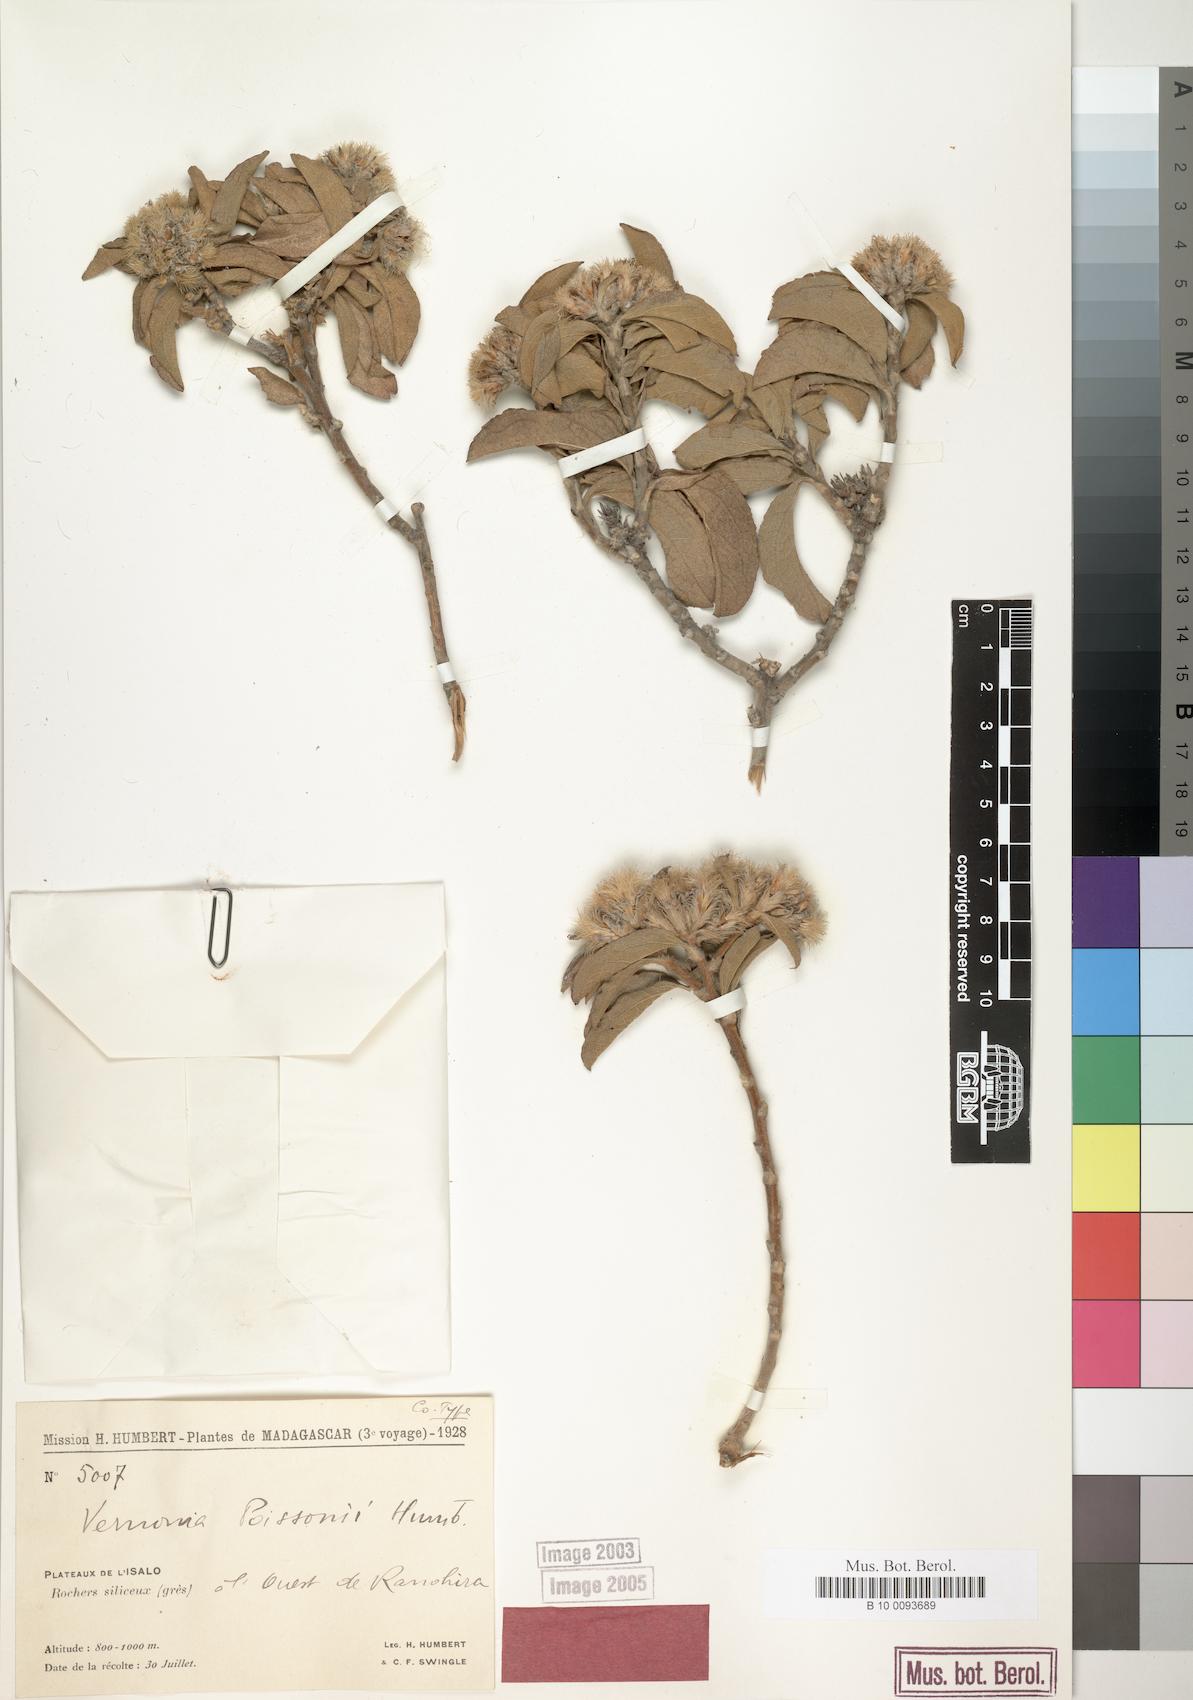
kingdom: Plantae
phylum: Tracheophyta
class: Magnoliopsida
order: Asterales
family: Asteraceae
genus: Distephanus
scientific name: Distephanus poissonii
